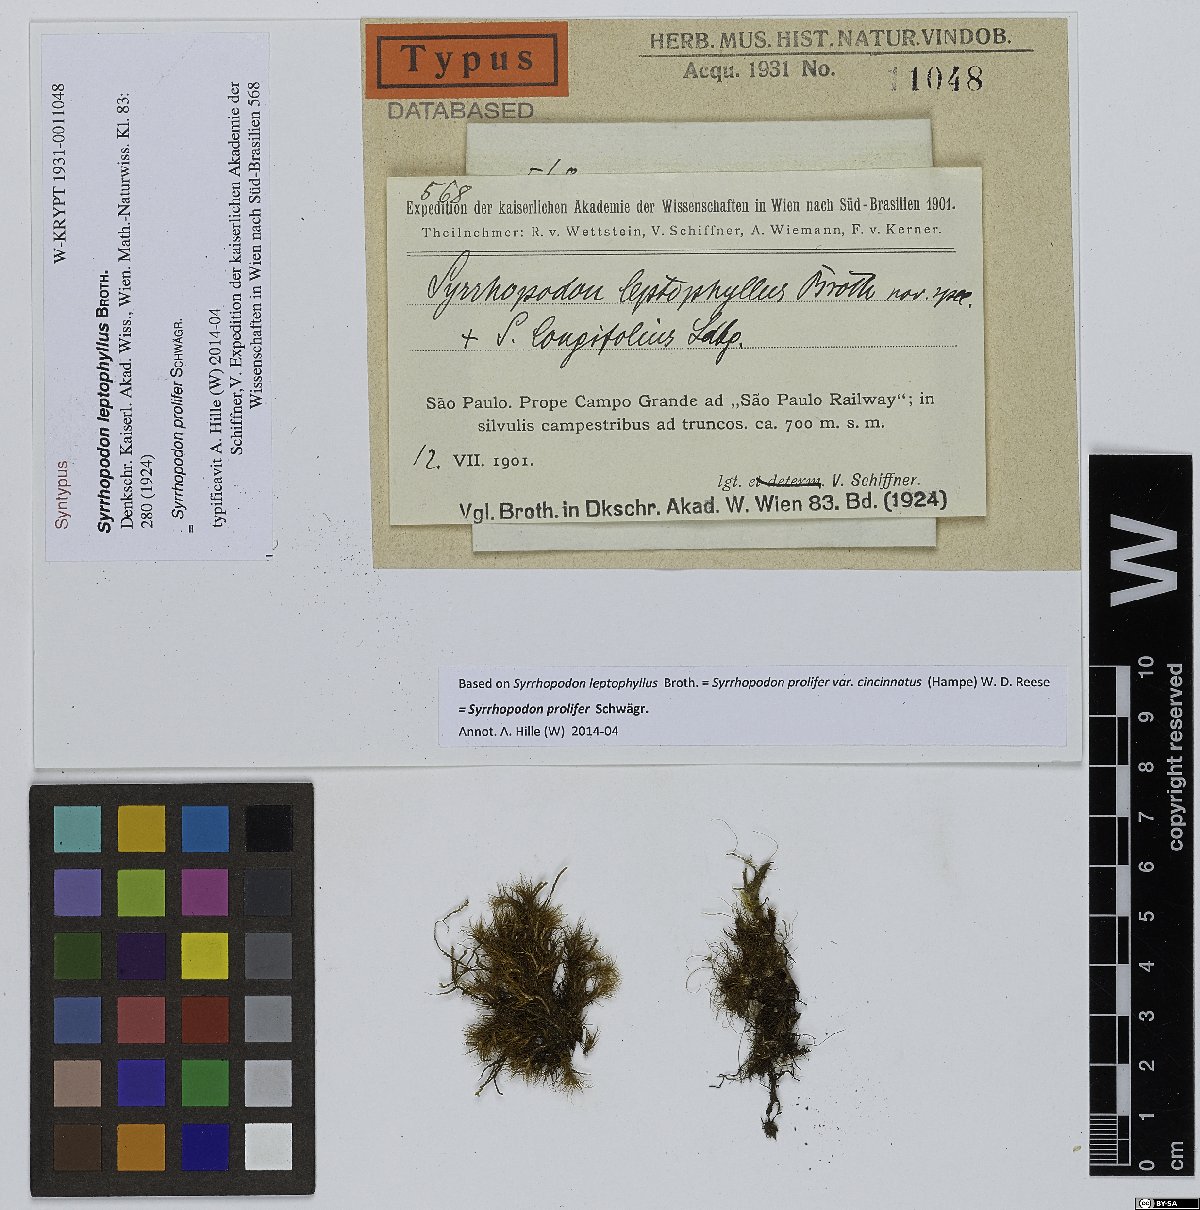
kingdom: Plantae
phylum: Bryophyta
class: Bryopsida
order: Dicranales
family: Calymperaceae
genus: Syrrhopodon
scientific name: Syrrhopodon prolifer
